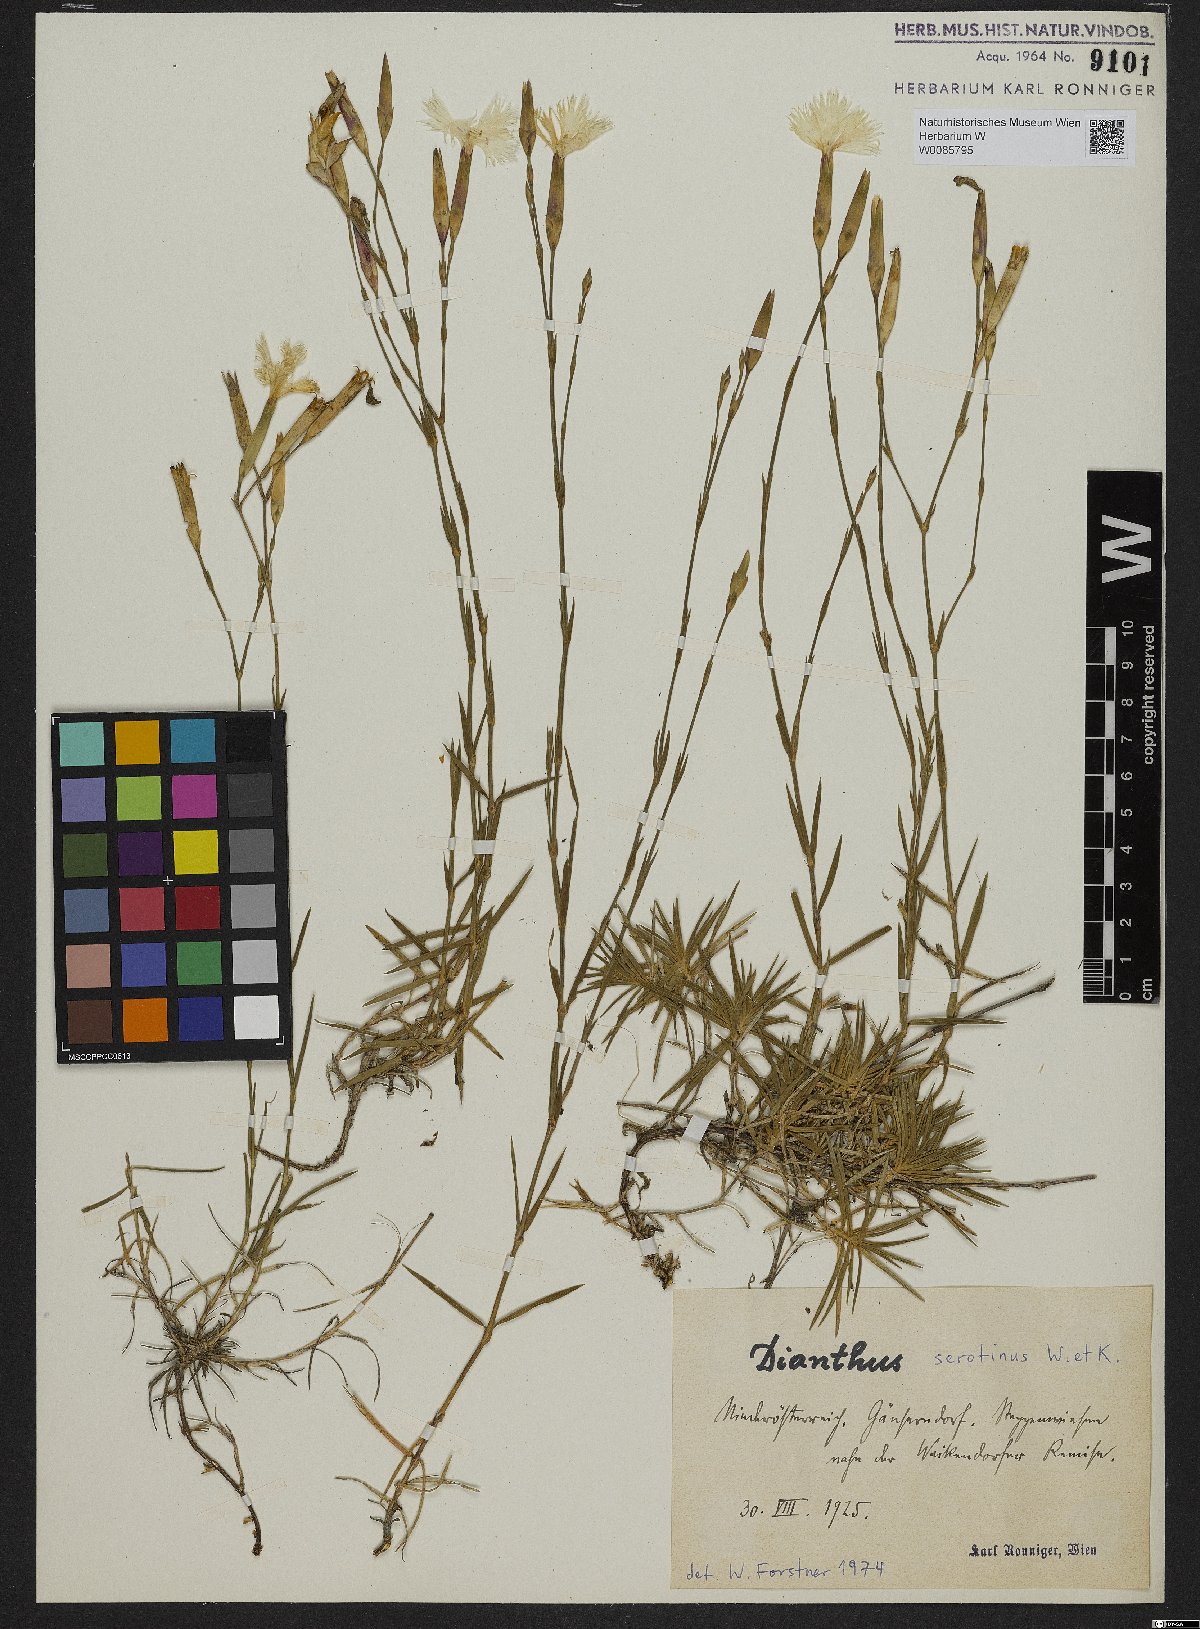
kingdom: Plantae
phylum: Tracheophyta
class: Magnoliopsida
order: Caryophyllales
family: Caryophyllaceae
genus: Dianthus
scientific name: Dianthus serotinus
